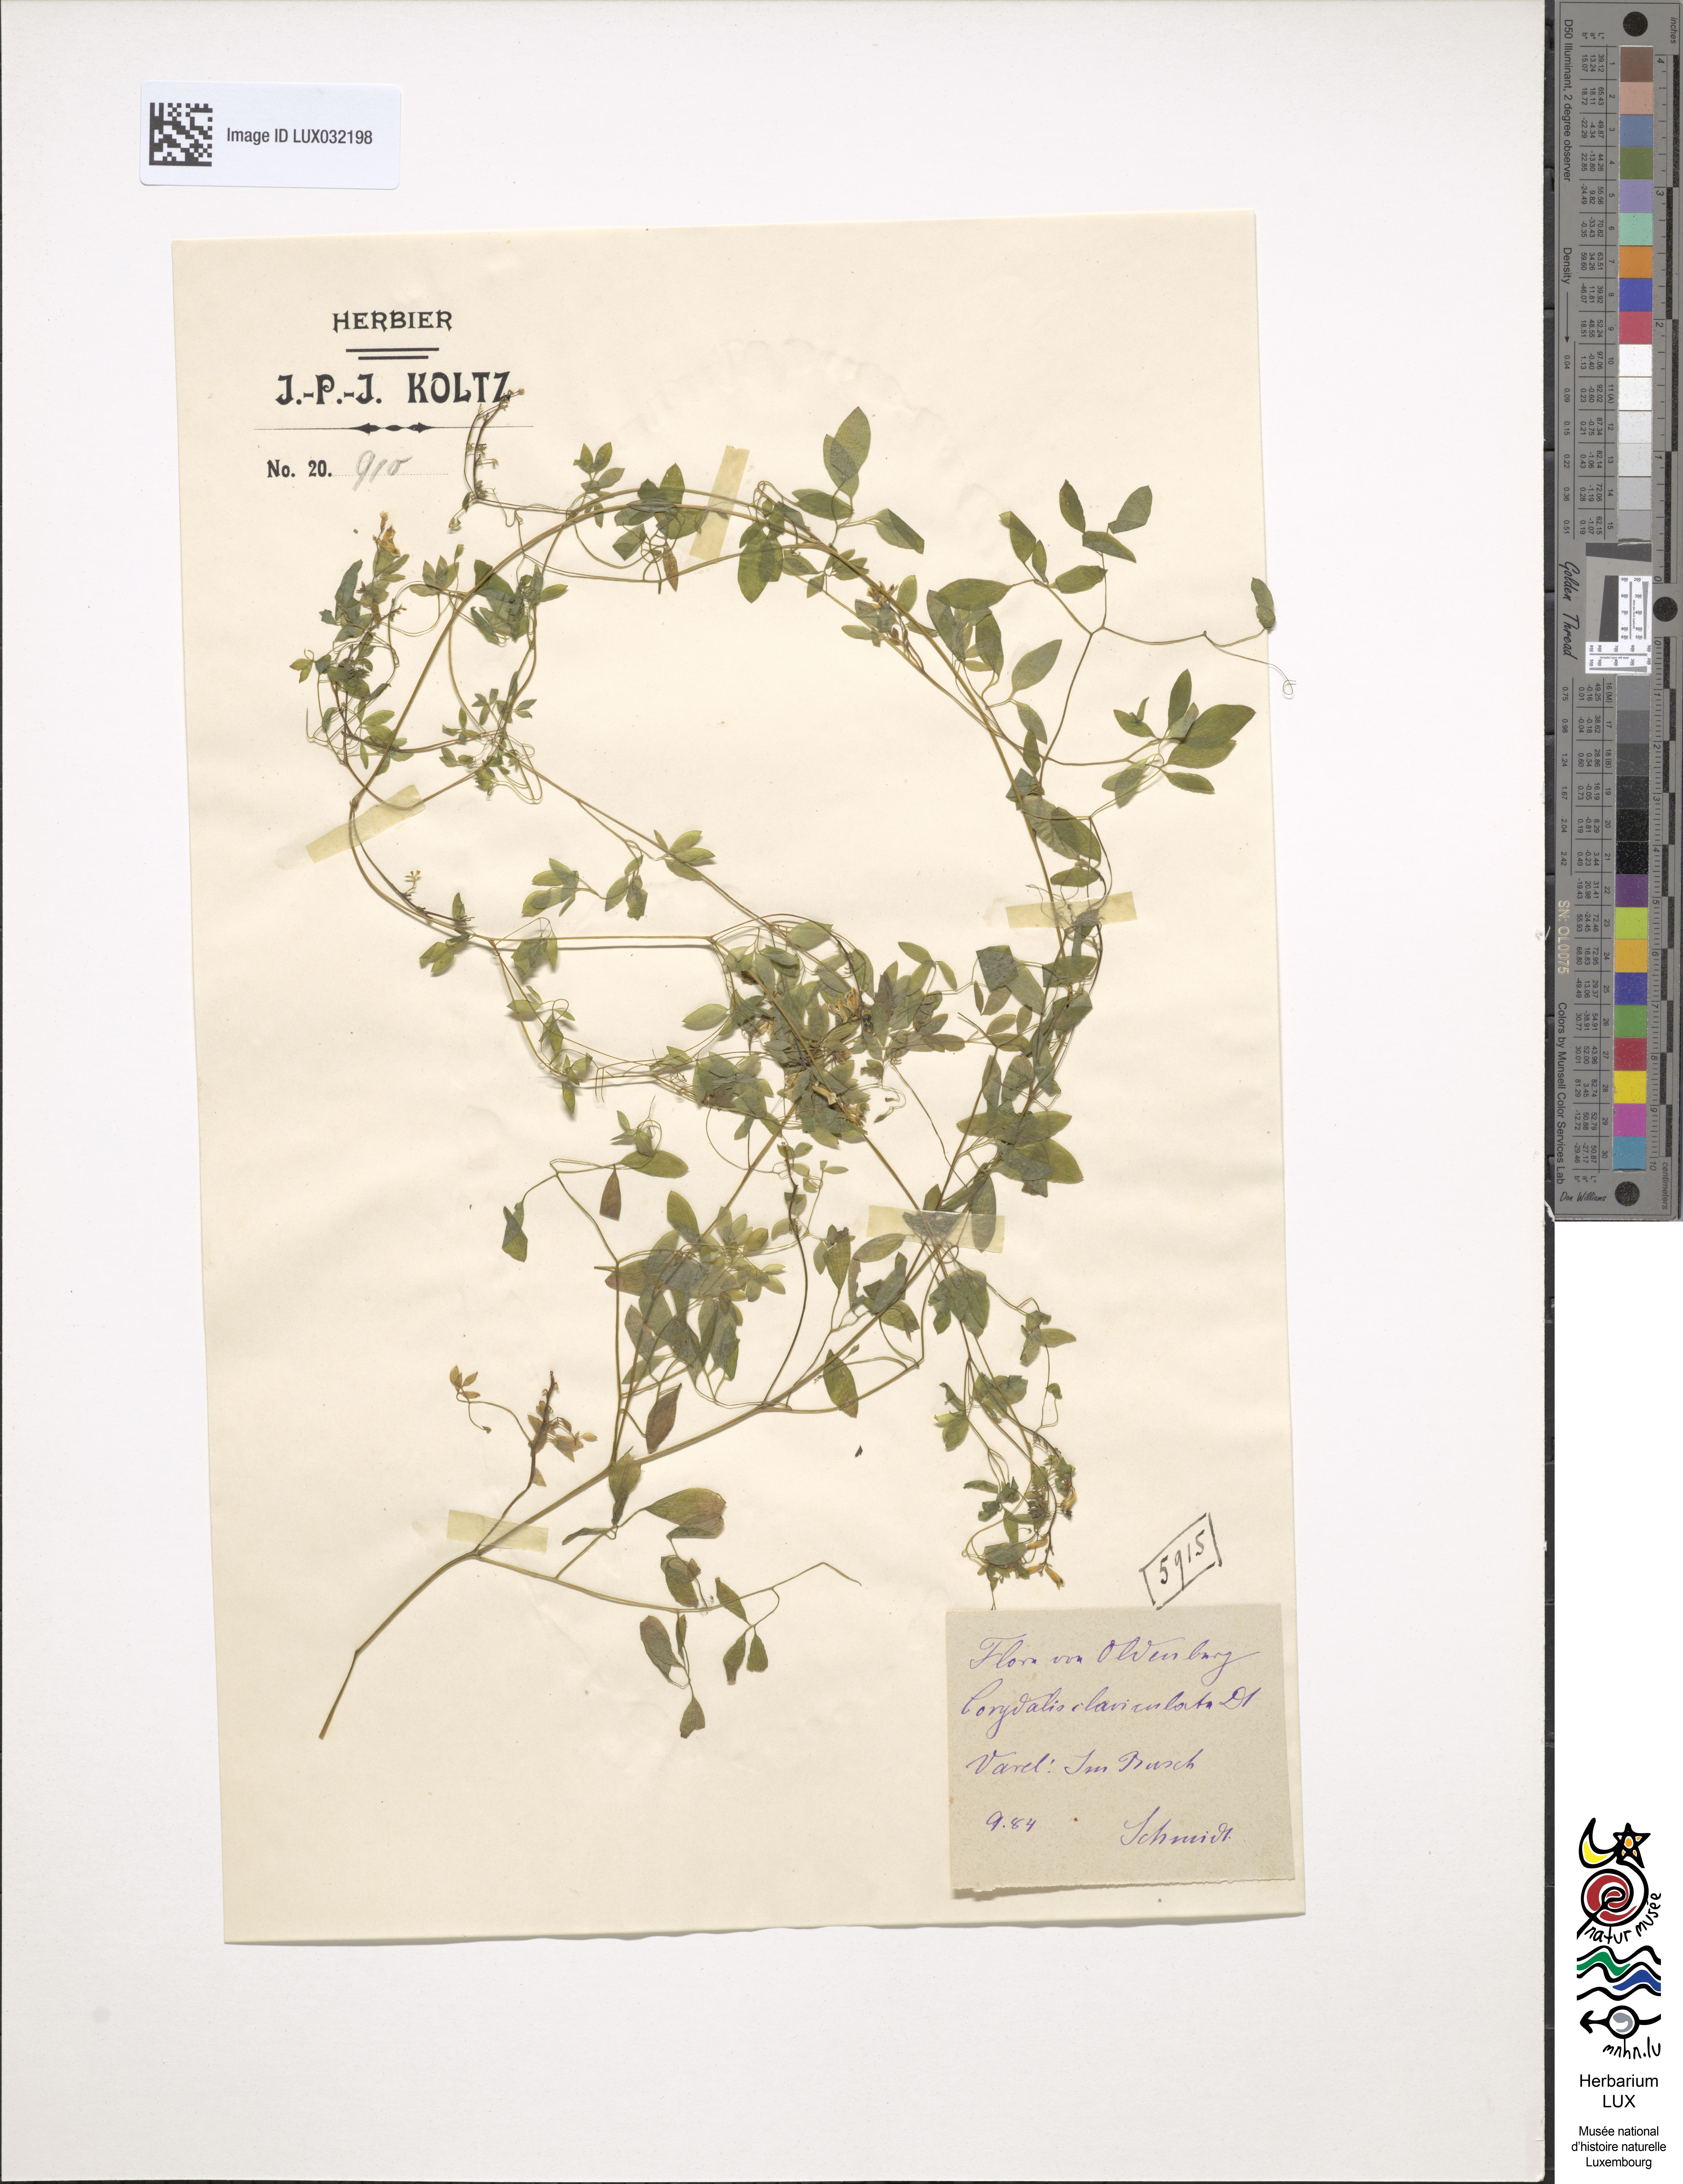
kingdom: Plantae
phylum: Tracheophyta
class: Magnoliopsida
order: Ranunculales
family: Papaveraceae
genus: Ceratocapnos
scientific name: Ceratocapnos claviculata
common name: Climbing corydalis
